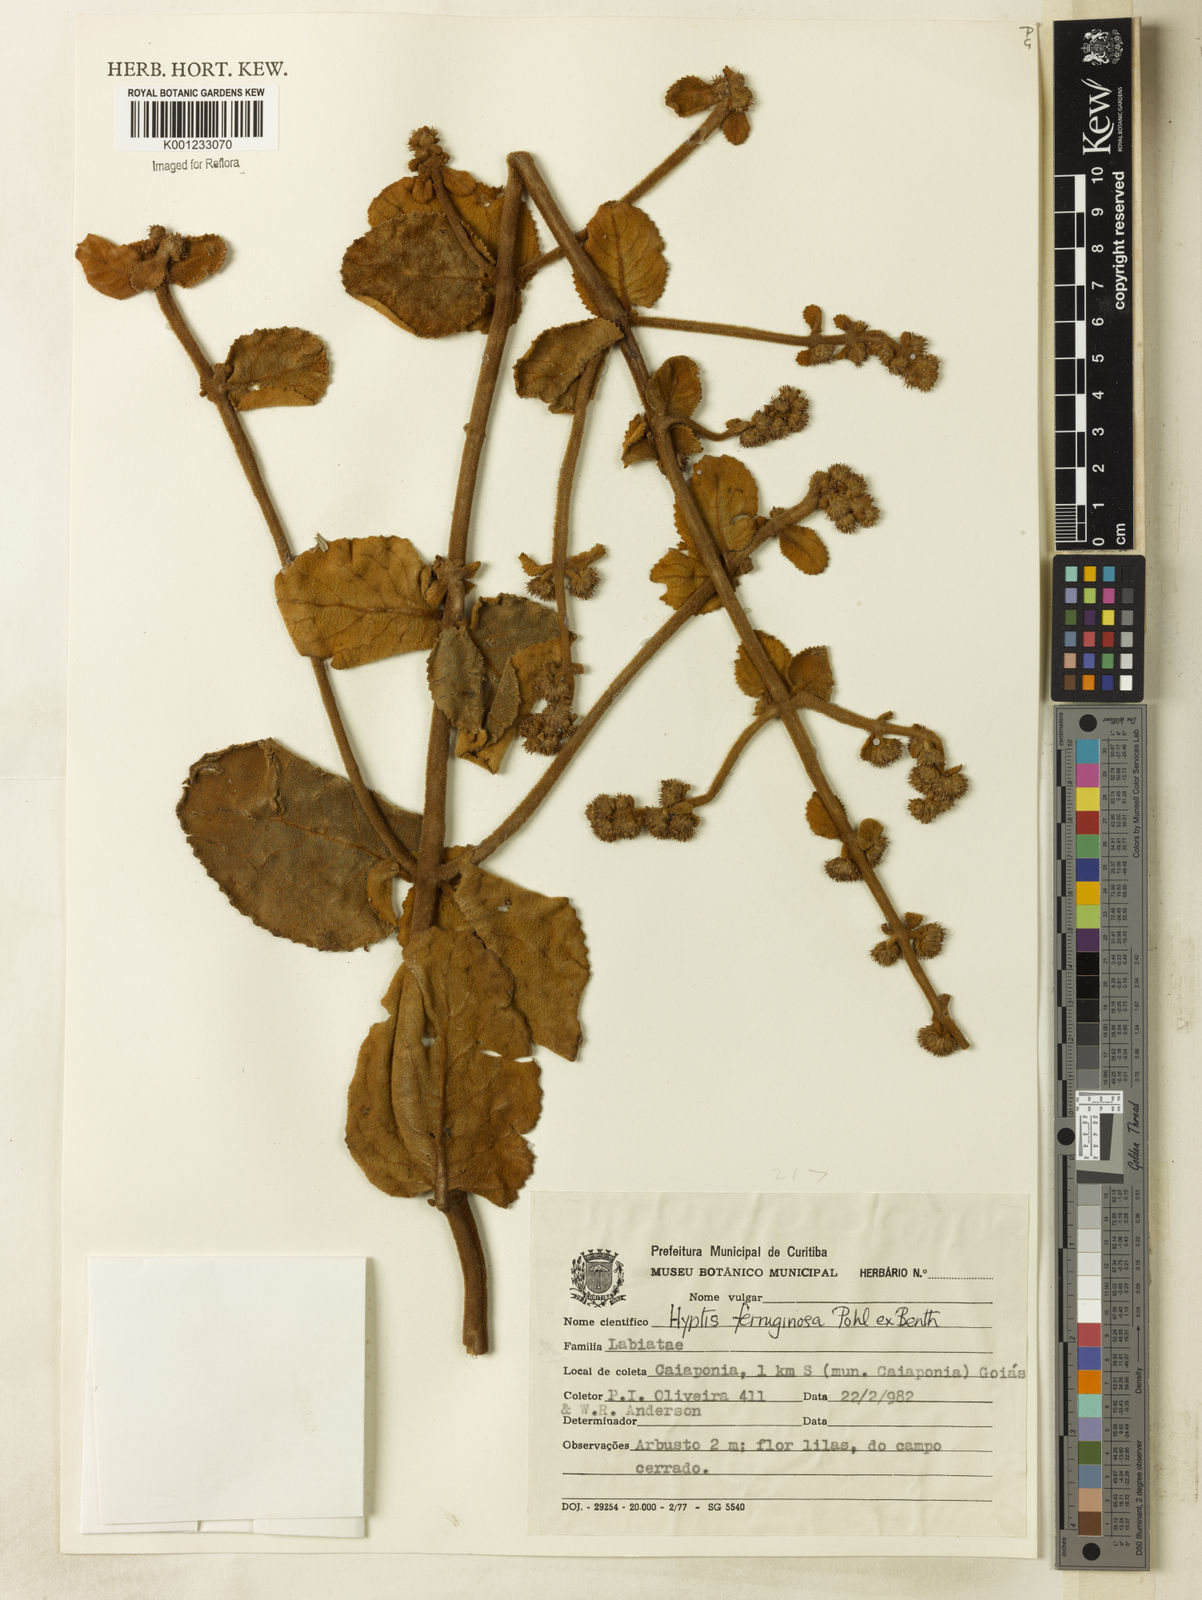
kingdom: Plantae
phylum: Tracheophyta
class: Magnoliopsida
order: Lamiales
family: Lamiaceae
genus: Hyptis
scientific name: Hyptis ferruginosa
